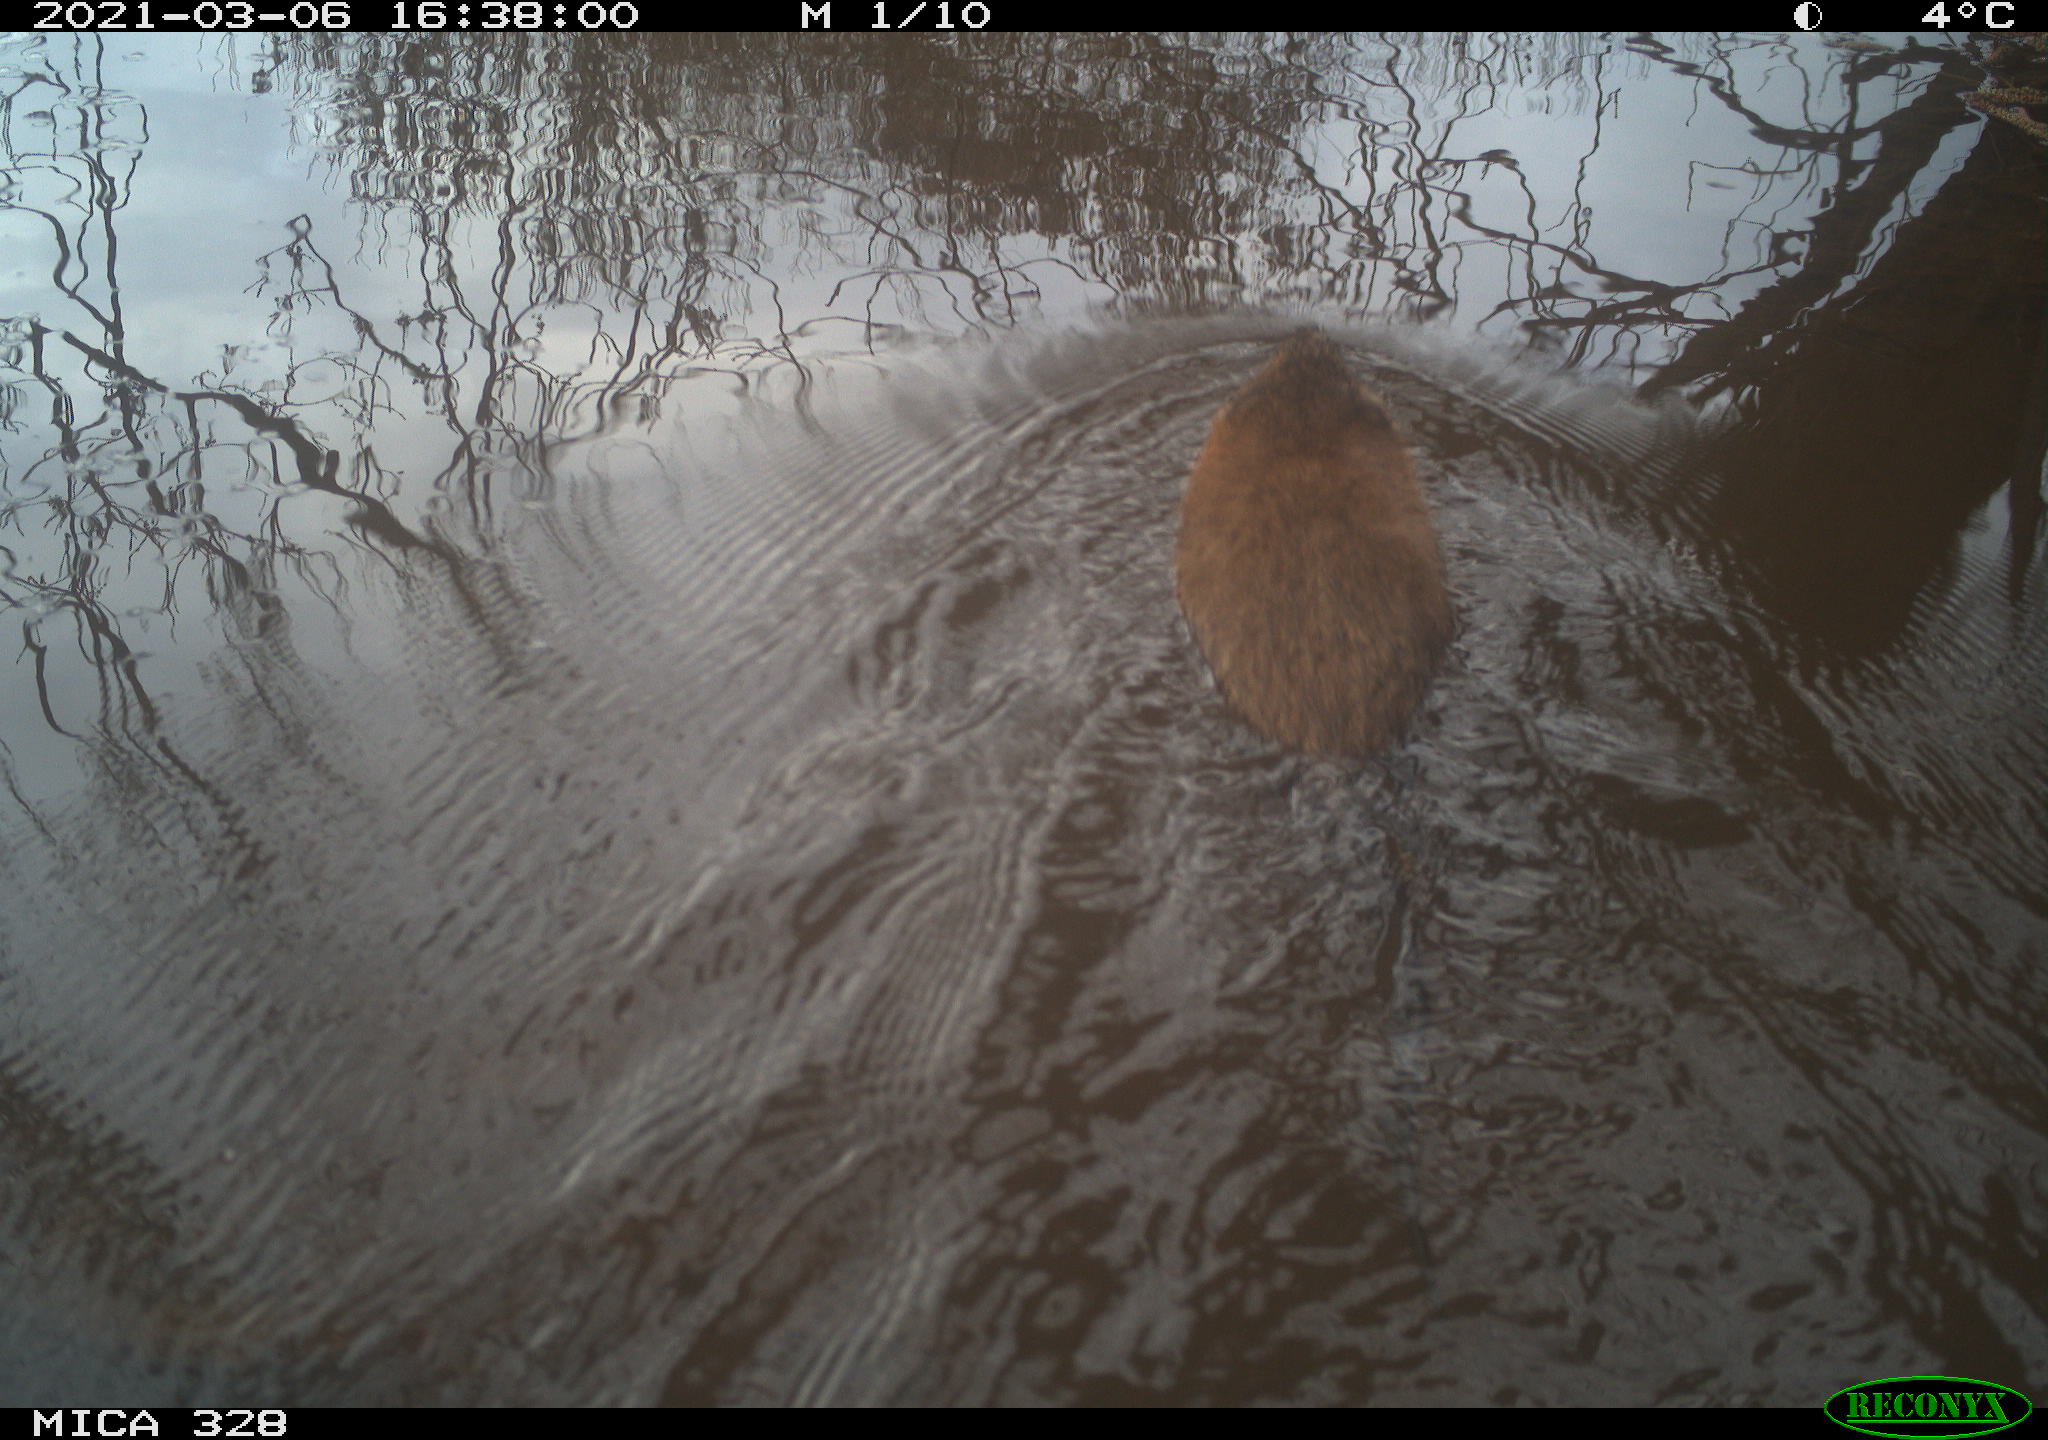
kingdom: Animalia
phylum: Chordata
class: Mammalia
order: Rodentia
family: Cricetidae
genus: Ondatra
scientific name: Ondatra zibethicus
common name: Muskrat
